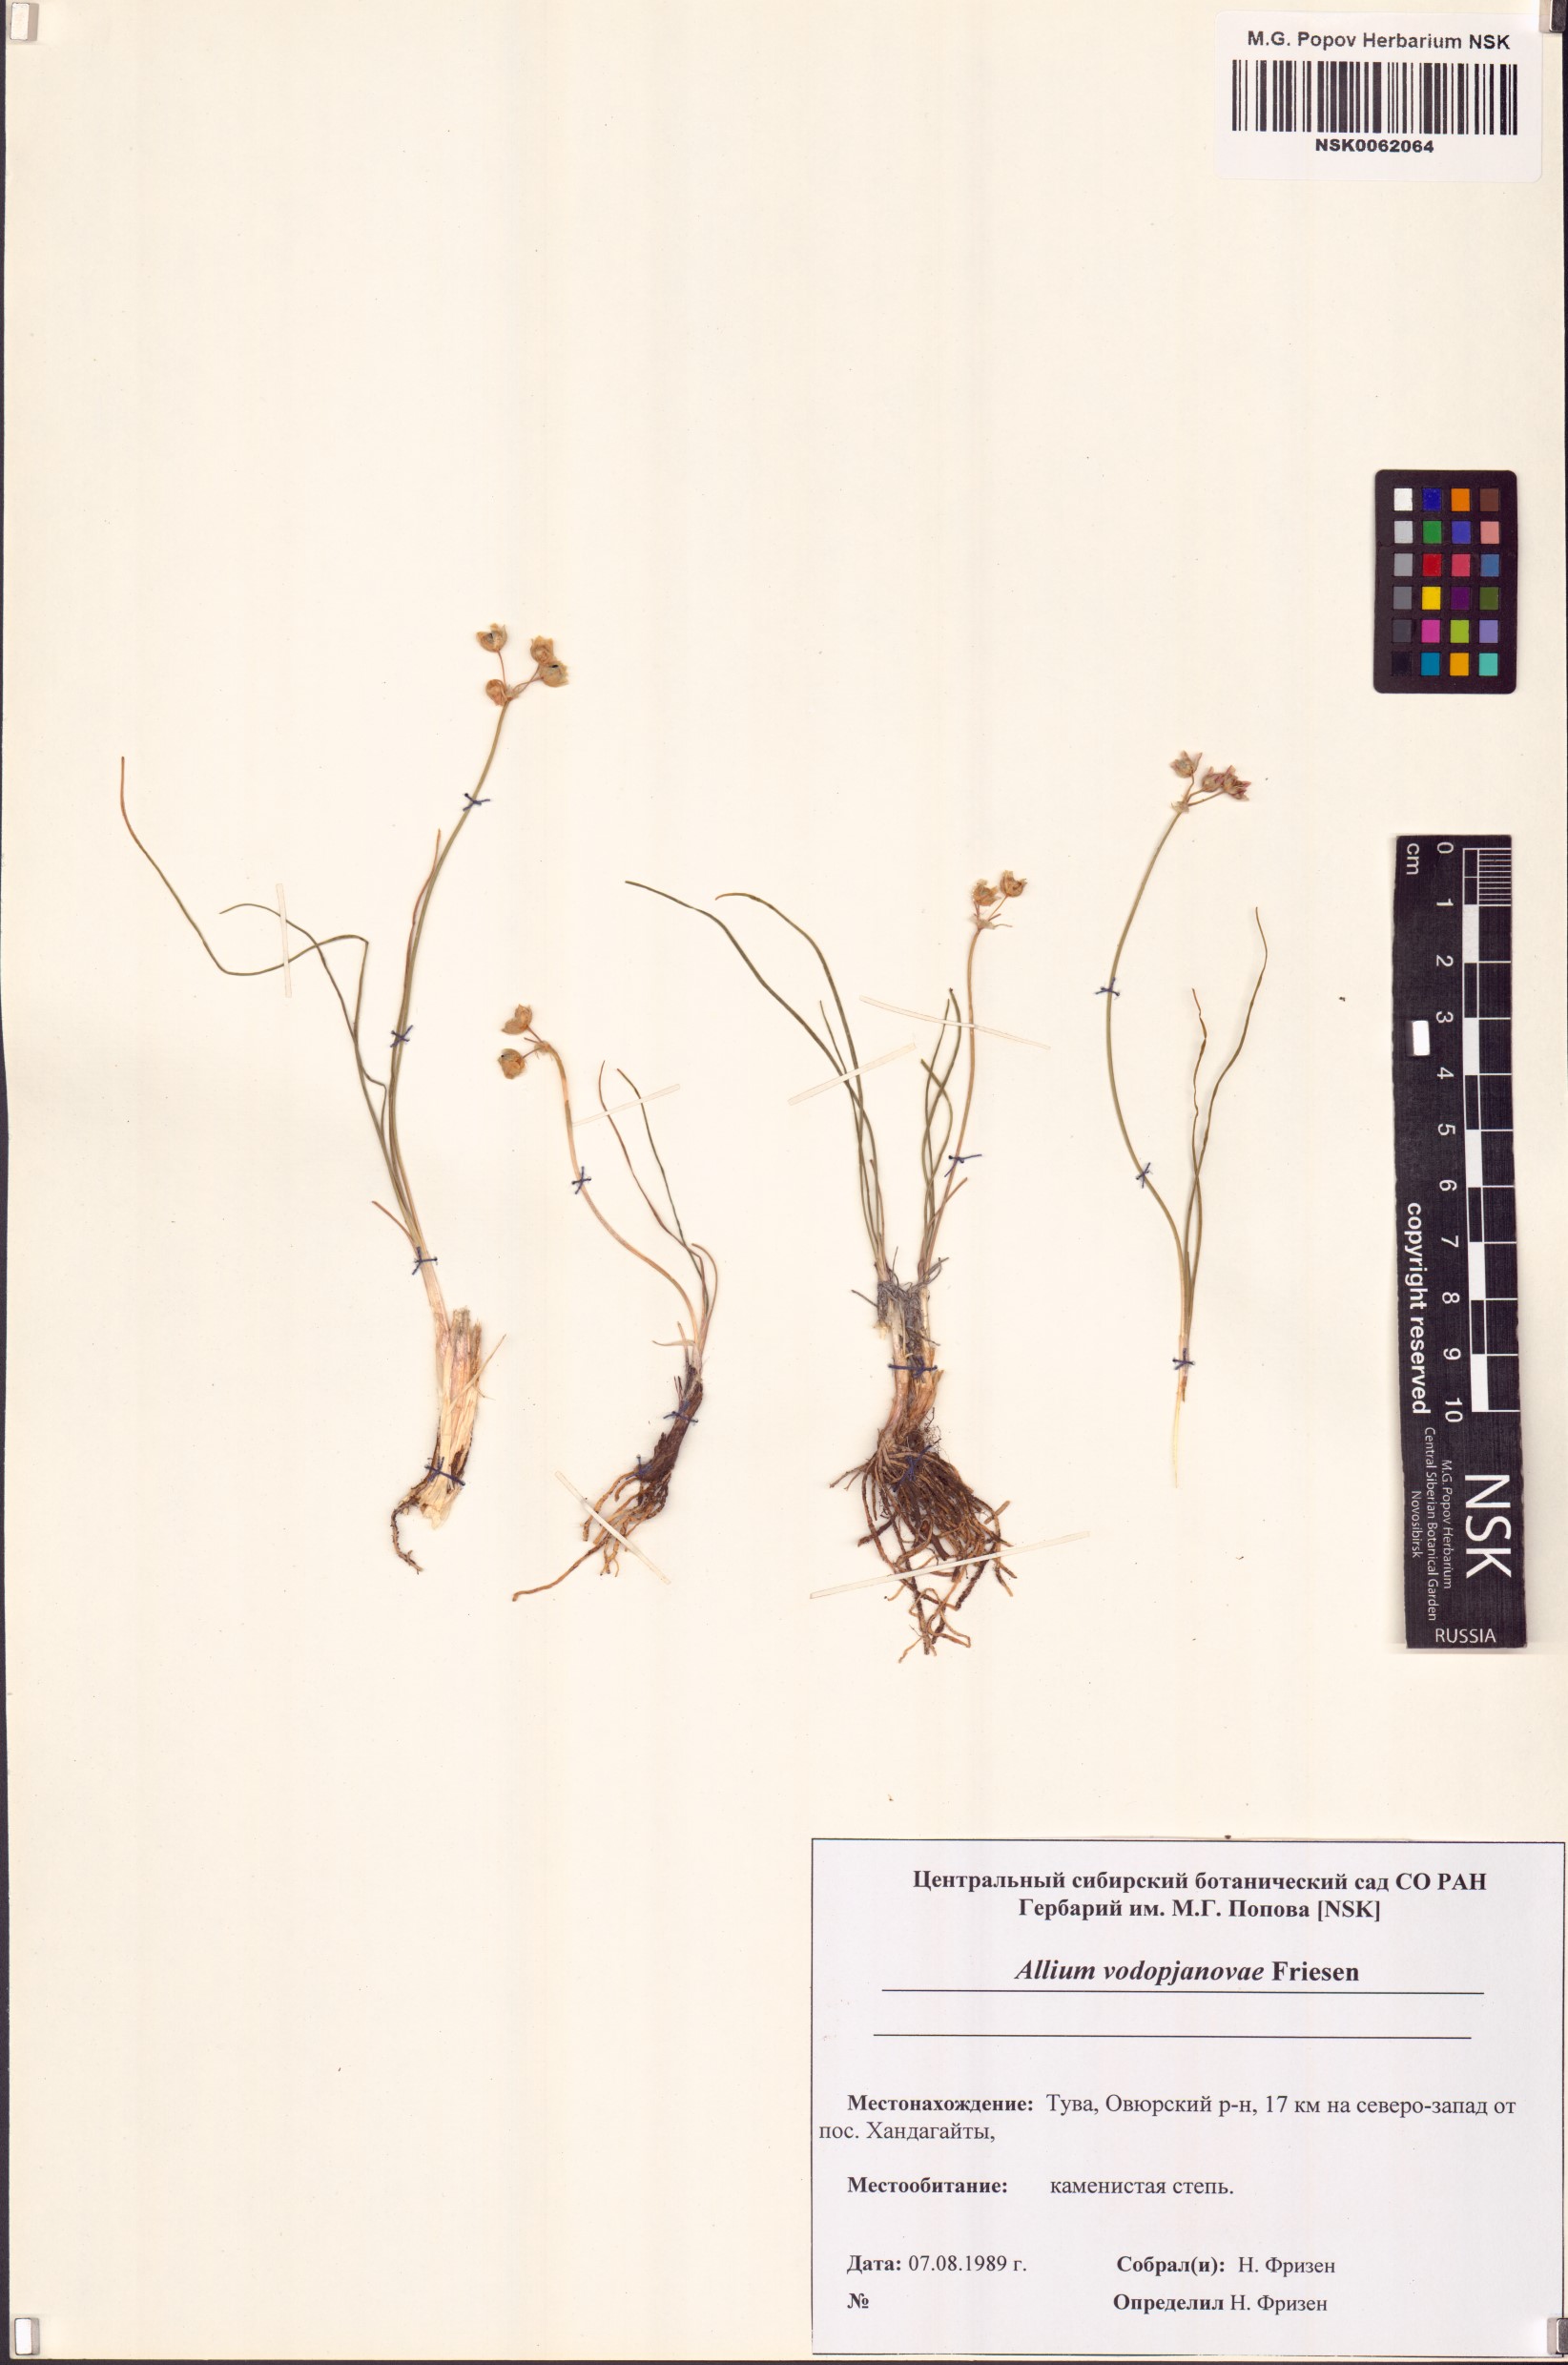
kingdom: Plantae
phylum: Tracheophyta
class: Liliopsida
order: Asparagales
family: Amaryllidaceae
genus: Allium
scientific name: Allium vodopjanovae
